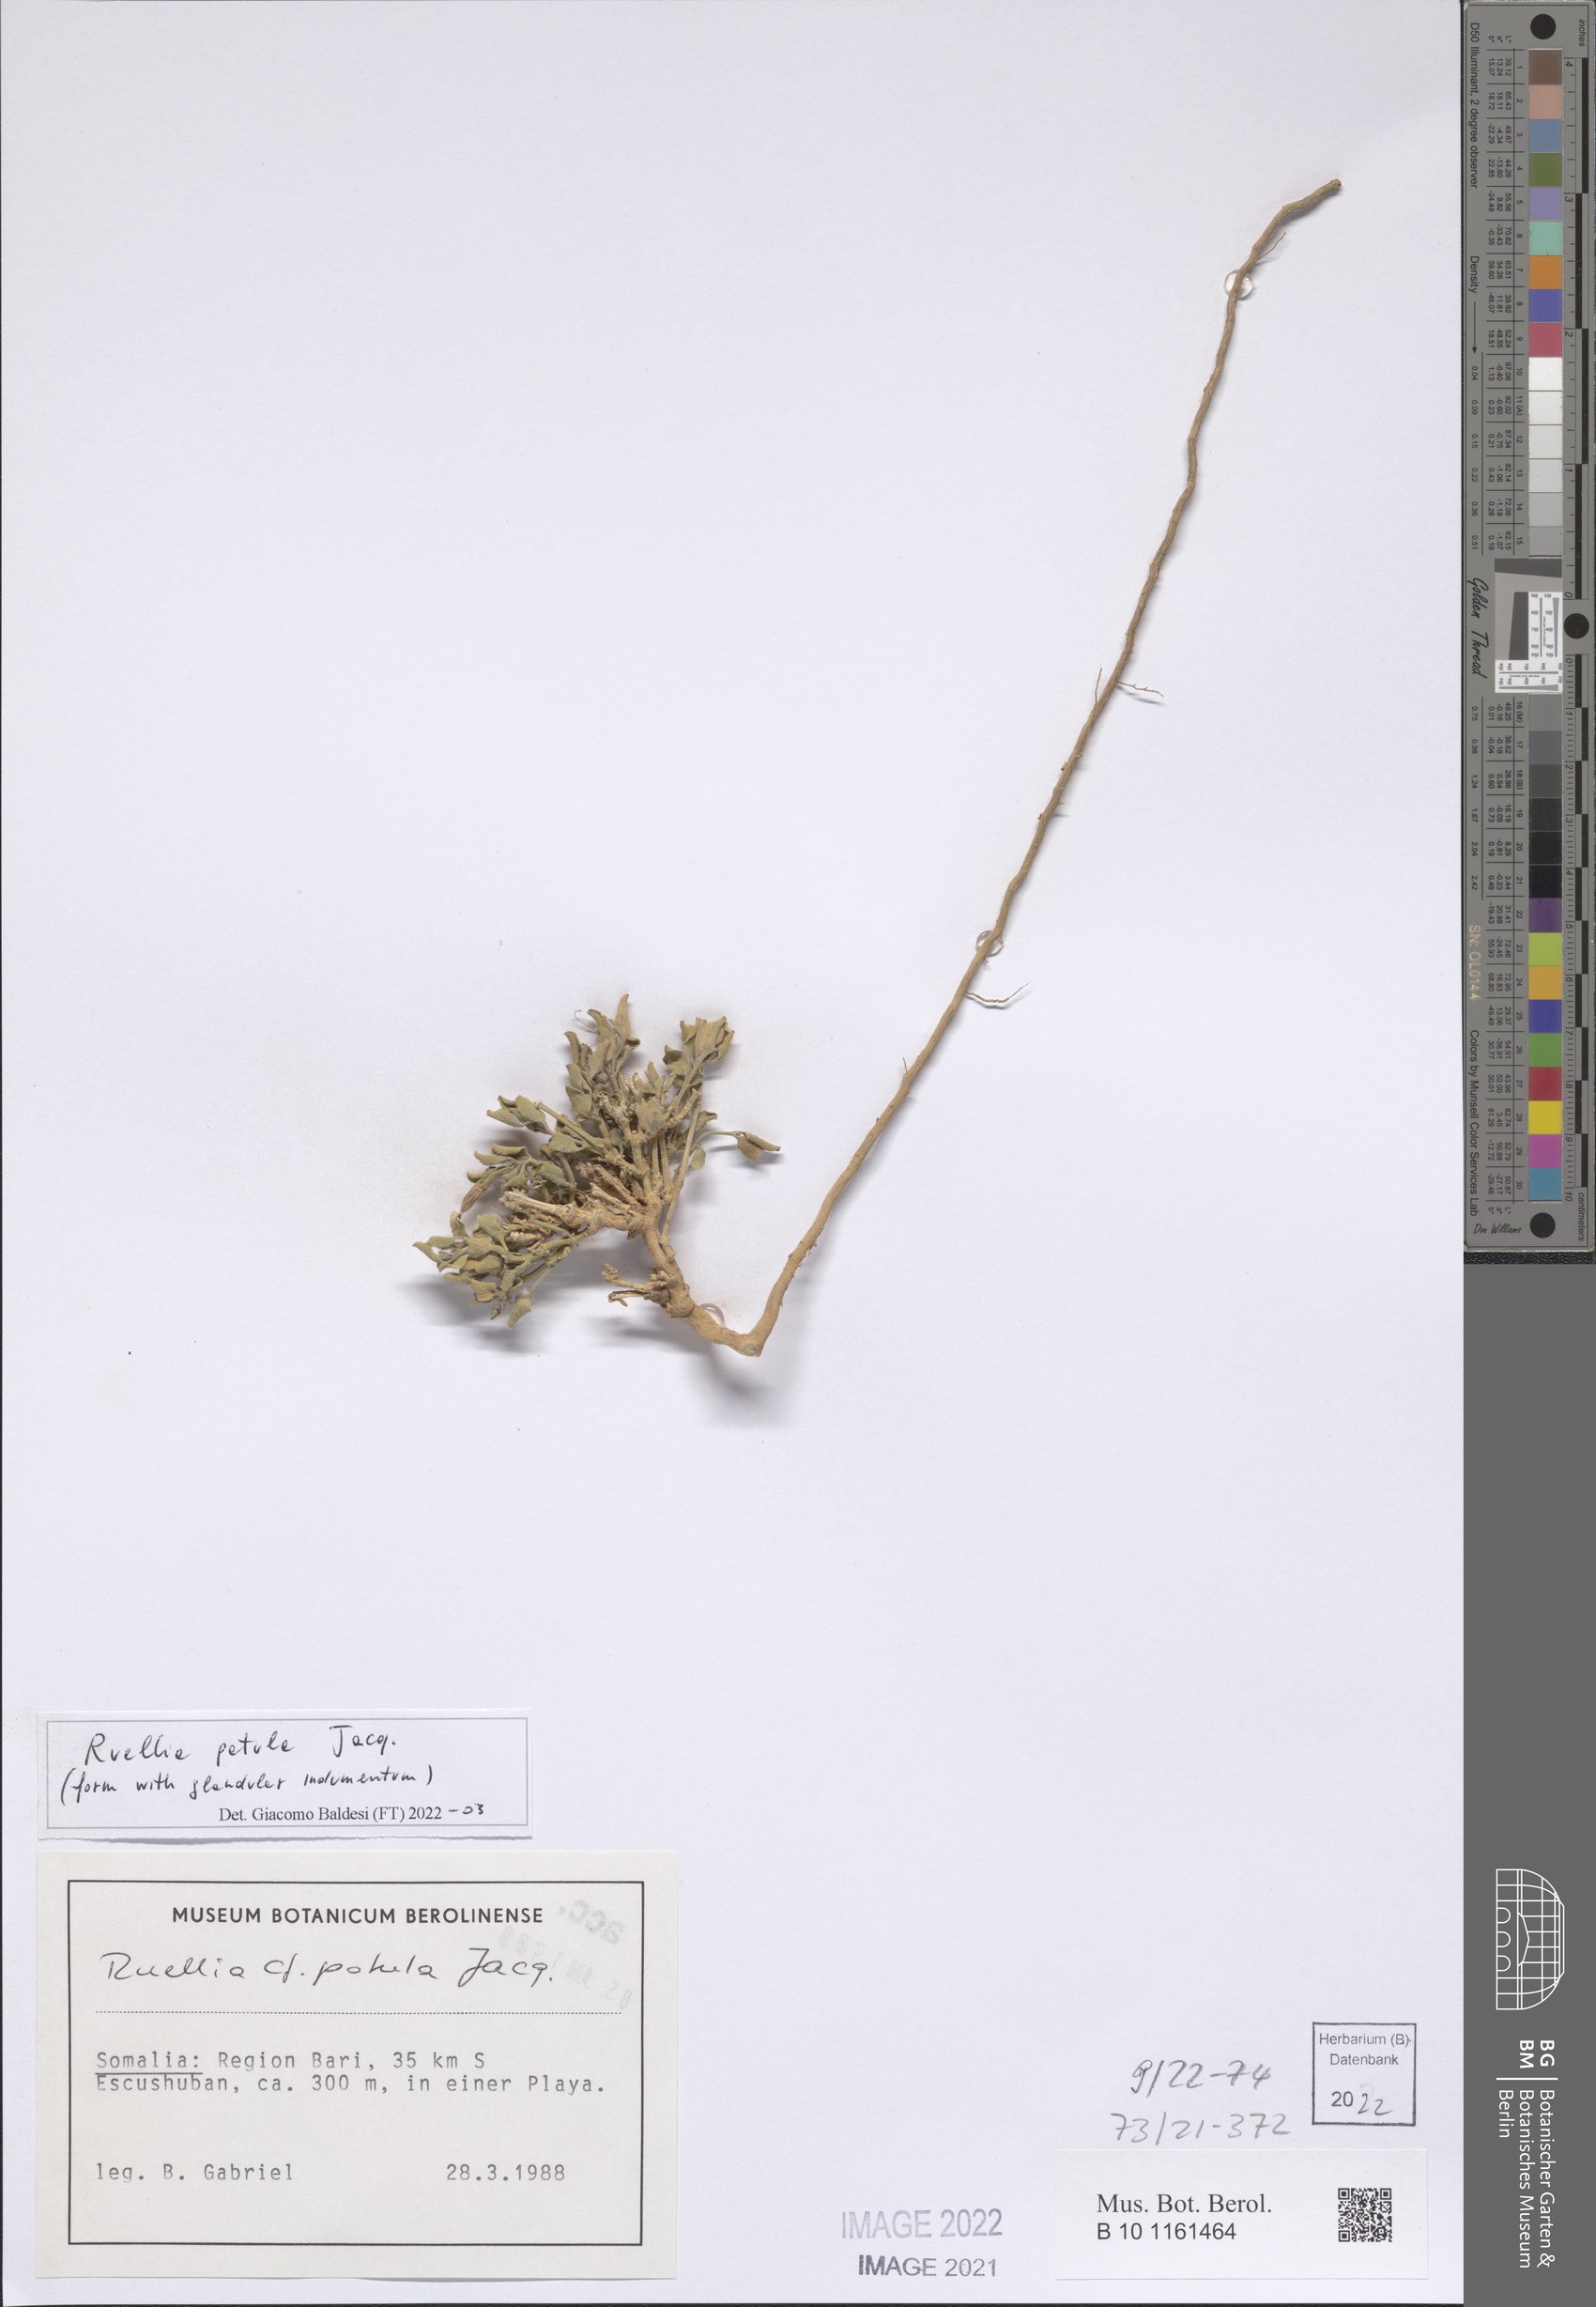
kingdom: Plantae
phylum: Tracheophyta
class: Magnoliopsida
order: Lamiales
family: Acanthaceae
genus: Ruellia
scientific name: Ruellia patula
